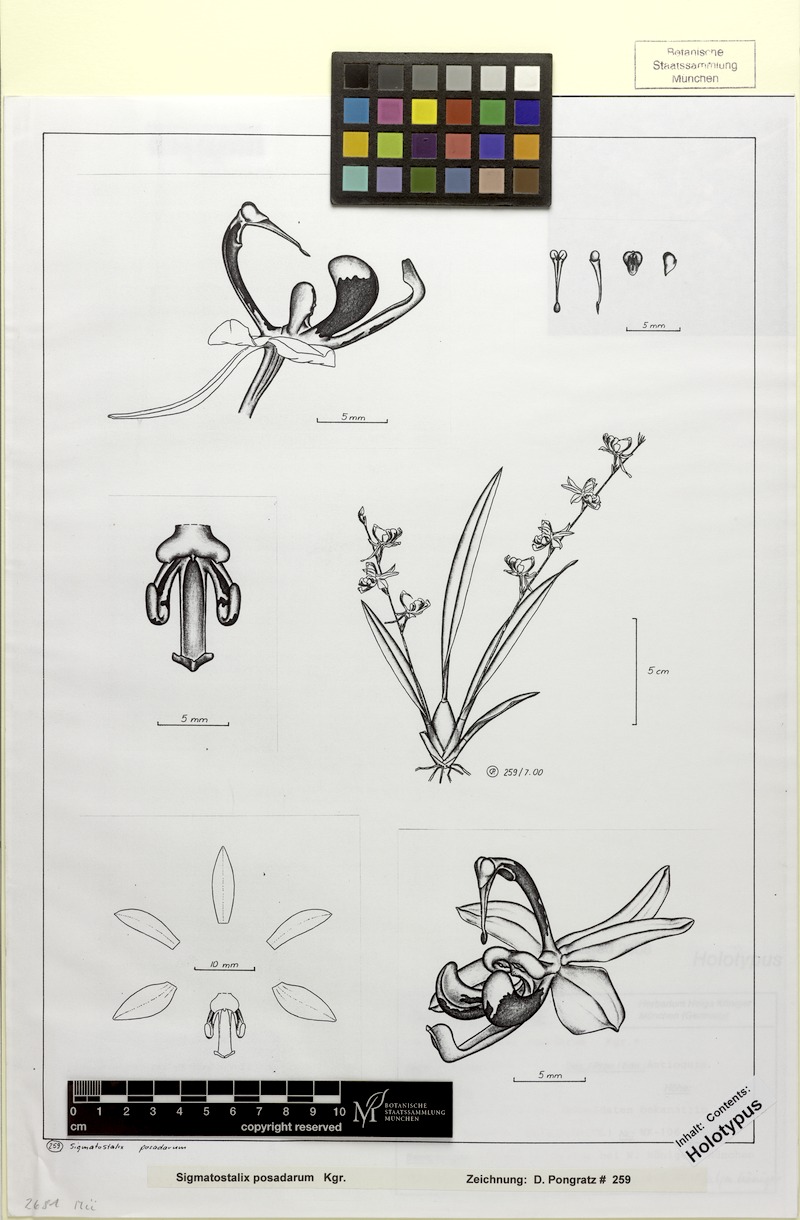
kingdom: Plantae
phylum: Tracheophyta
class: Liliopsida
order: Asparagales
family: Orchidaceae
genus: Oncidium
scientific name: Oncidium posadaroides
